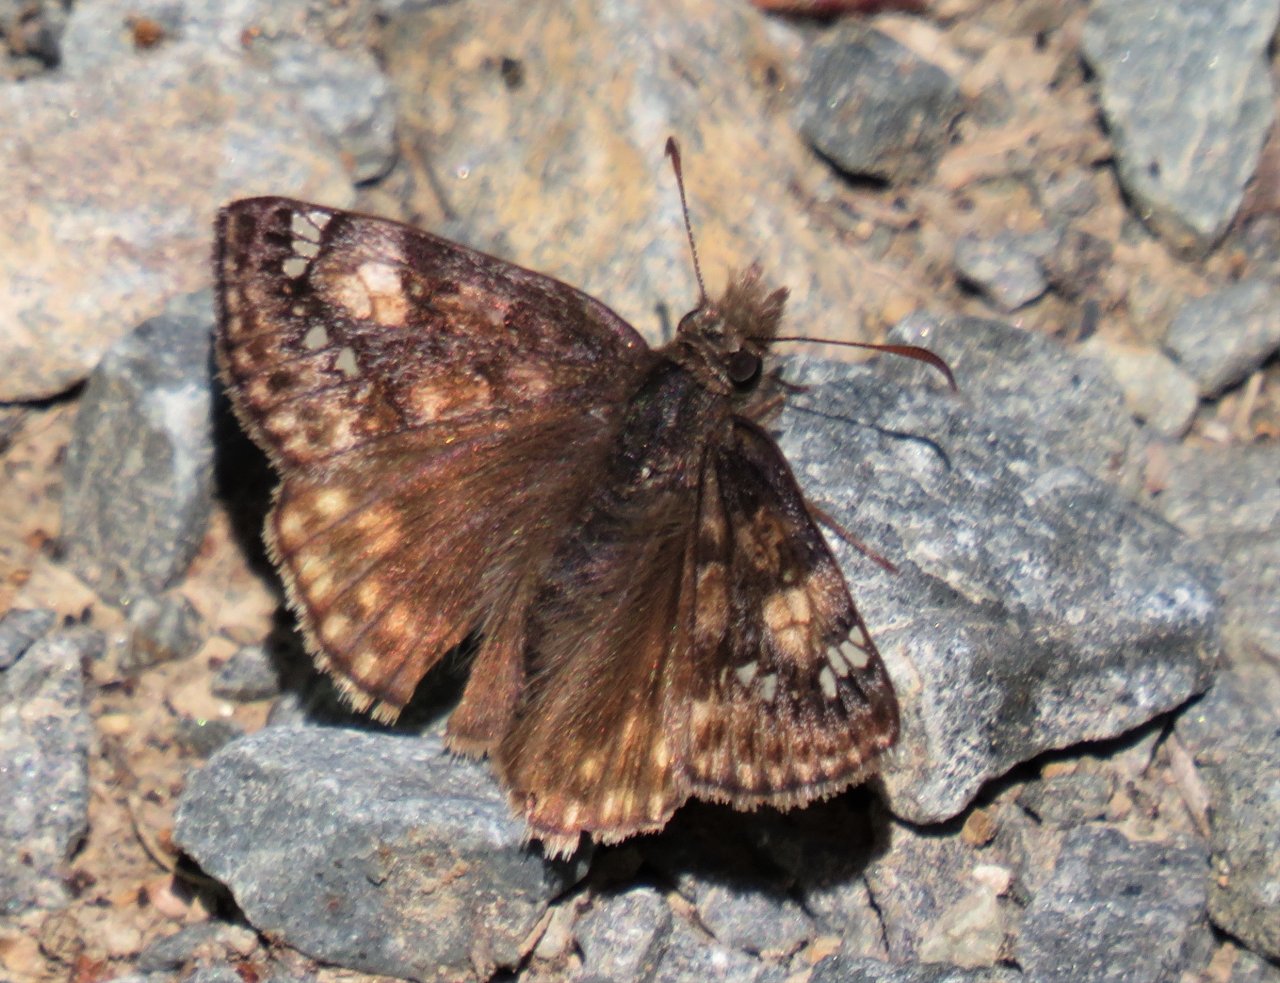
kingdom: Animalia
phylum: Arthropoda
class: Insecta
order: Lepidoptera
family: Hesperiidae
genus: Gesta
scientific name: Gesta
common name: Juvenal's Duskywing
